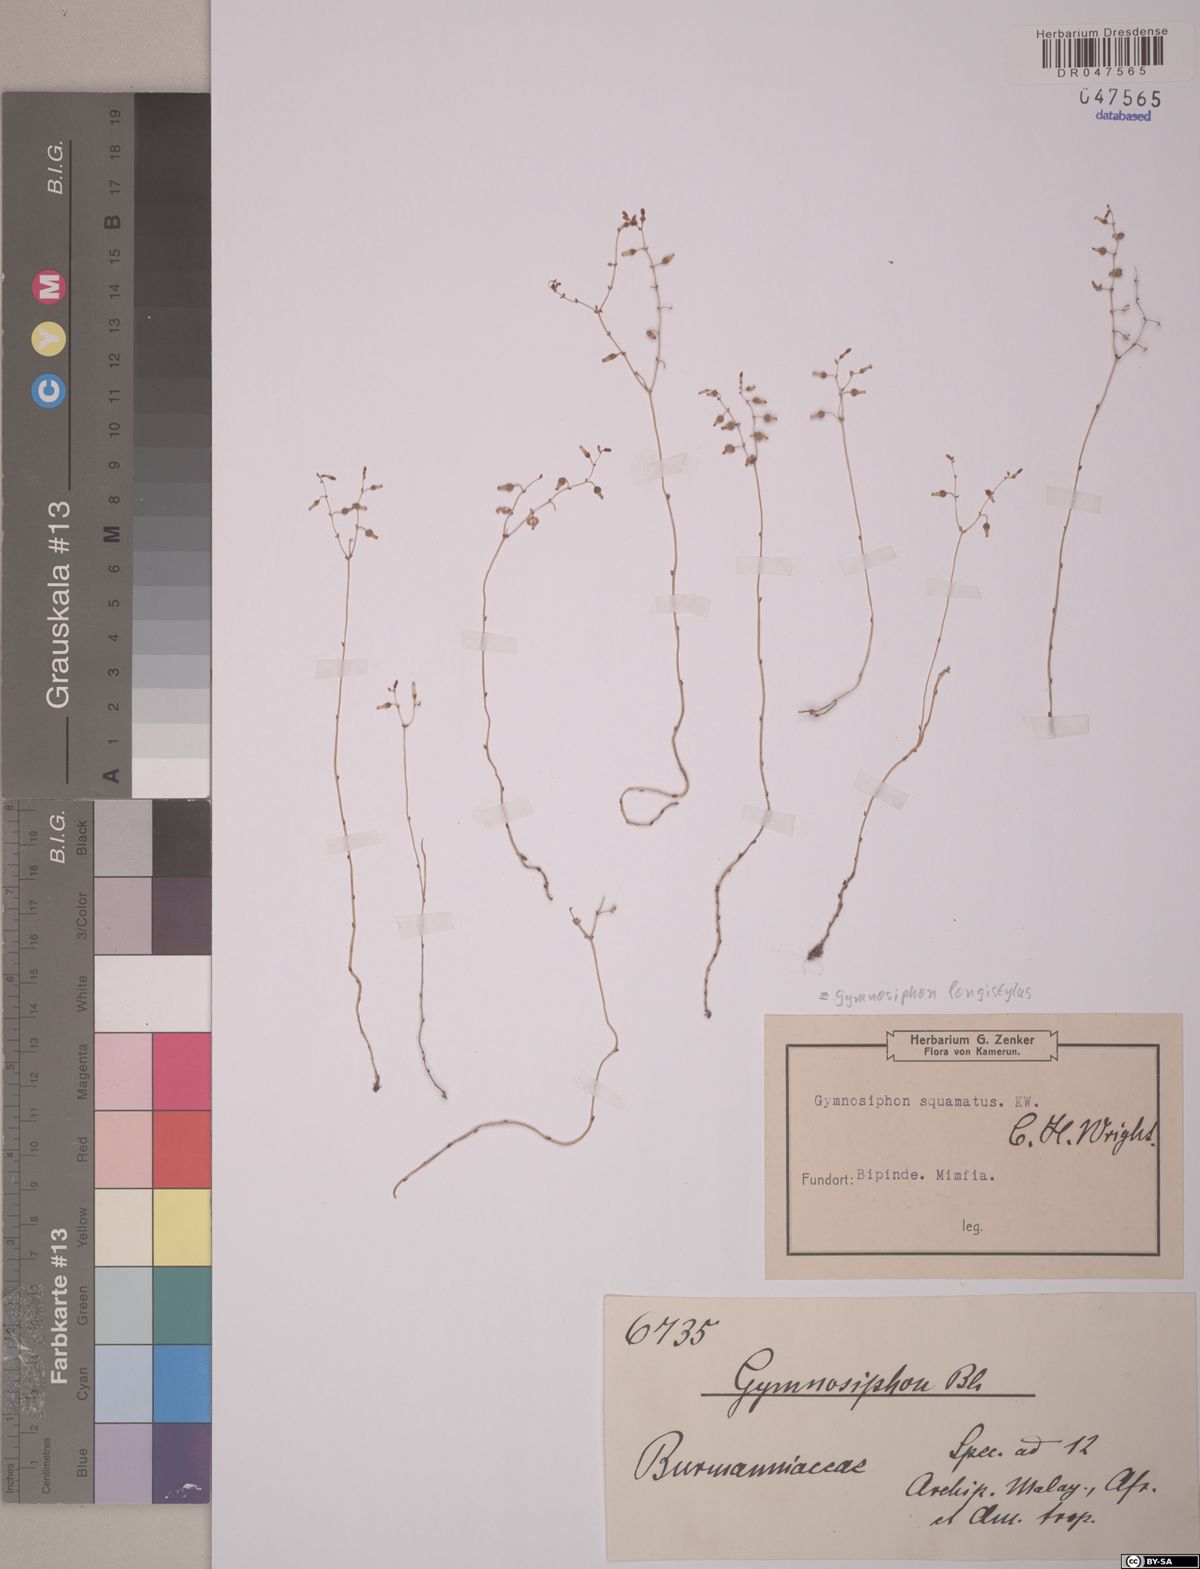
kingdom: Plantae
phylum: Tracheophyta
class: Liliopsida
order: Dioscoreales
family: Burmanniaceae
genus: Gymnosiphon
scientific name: Gymnosiphon longistylus
